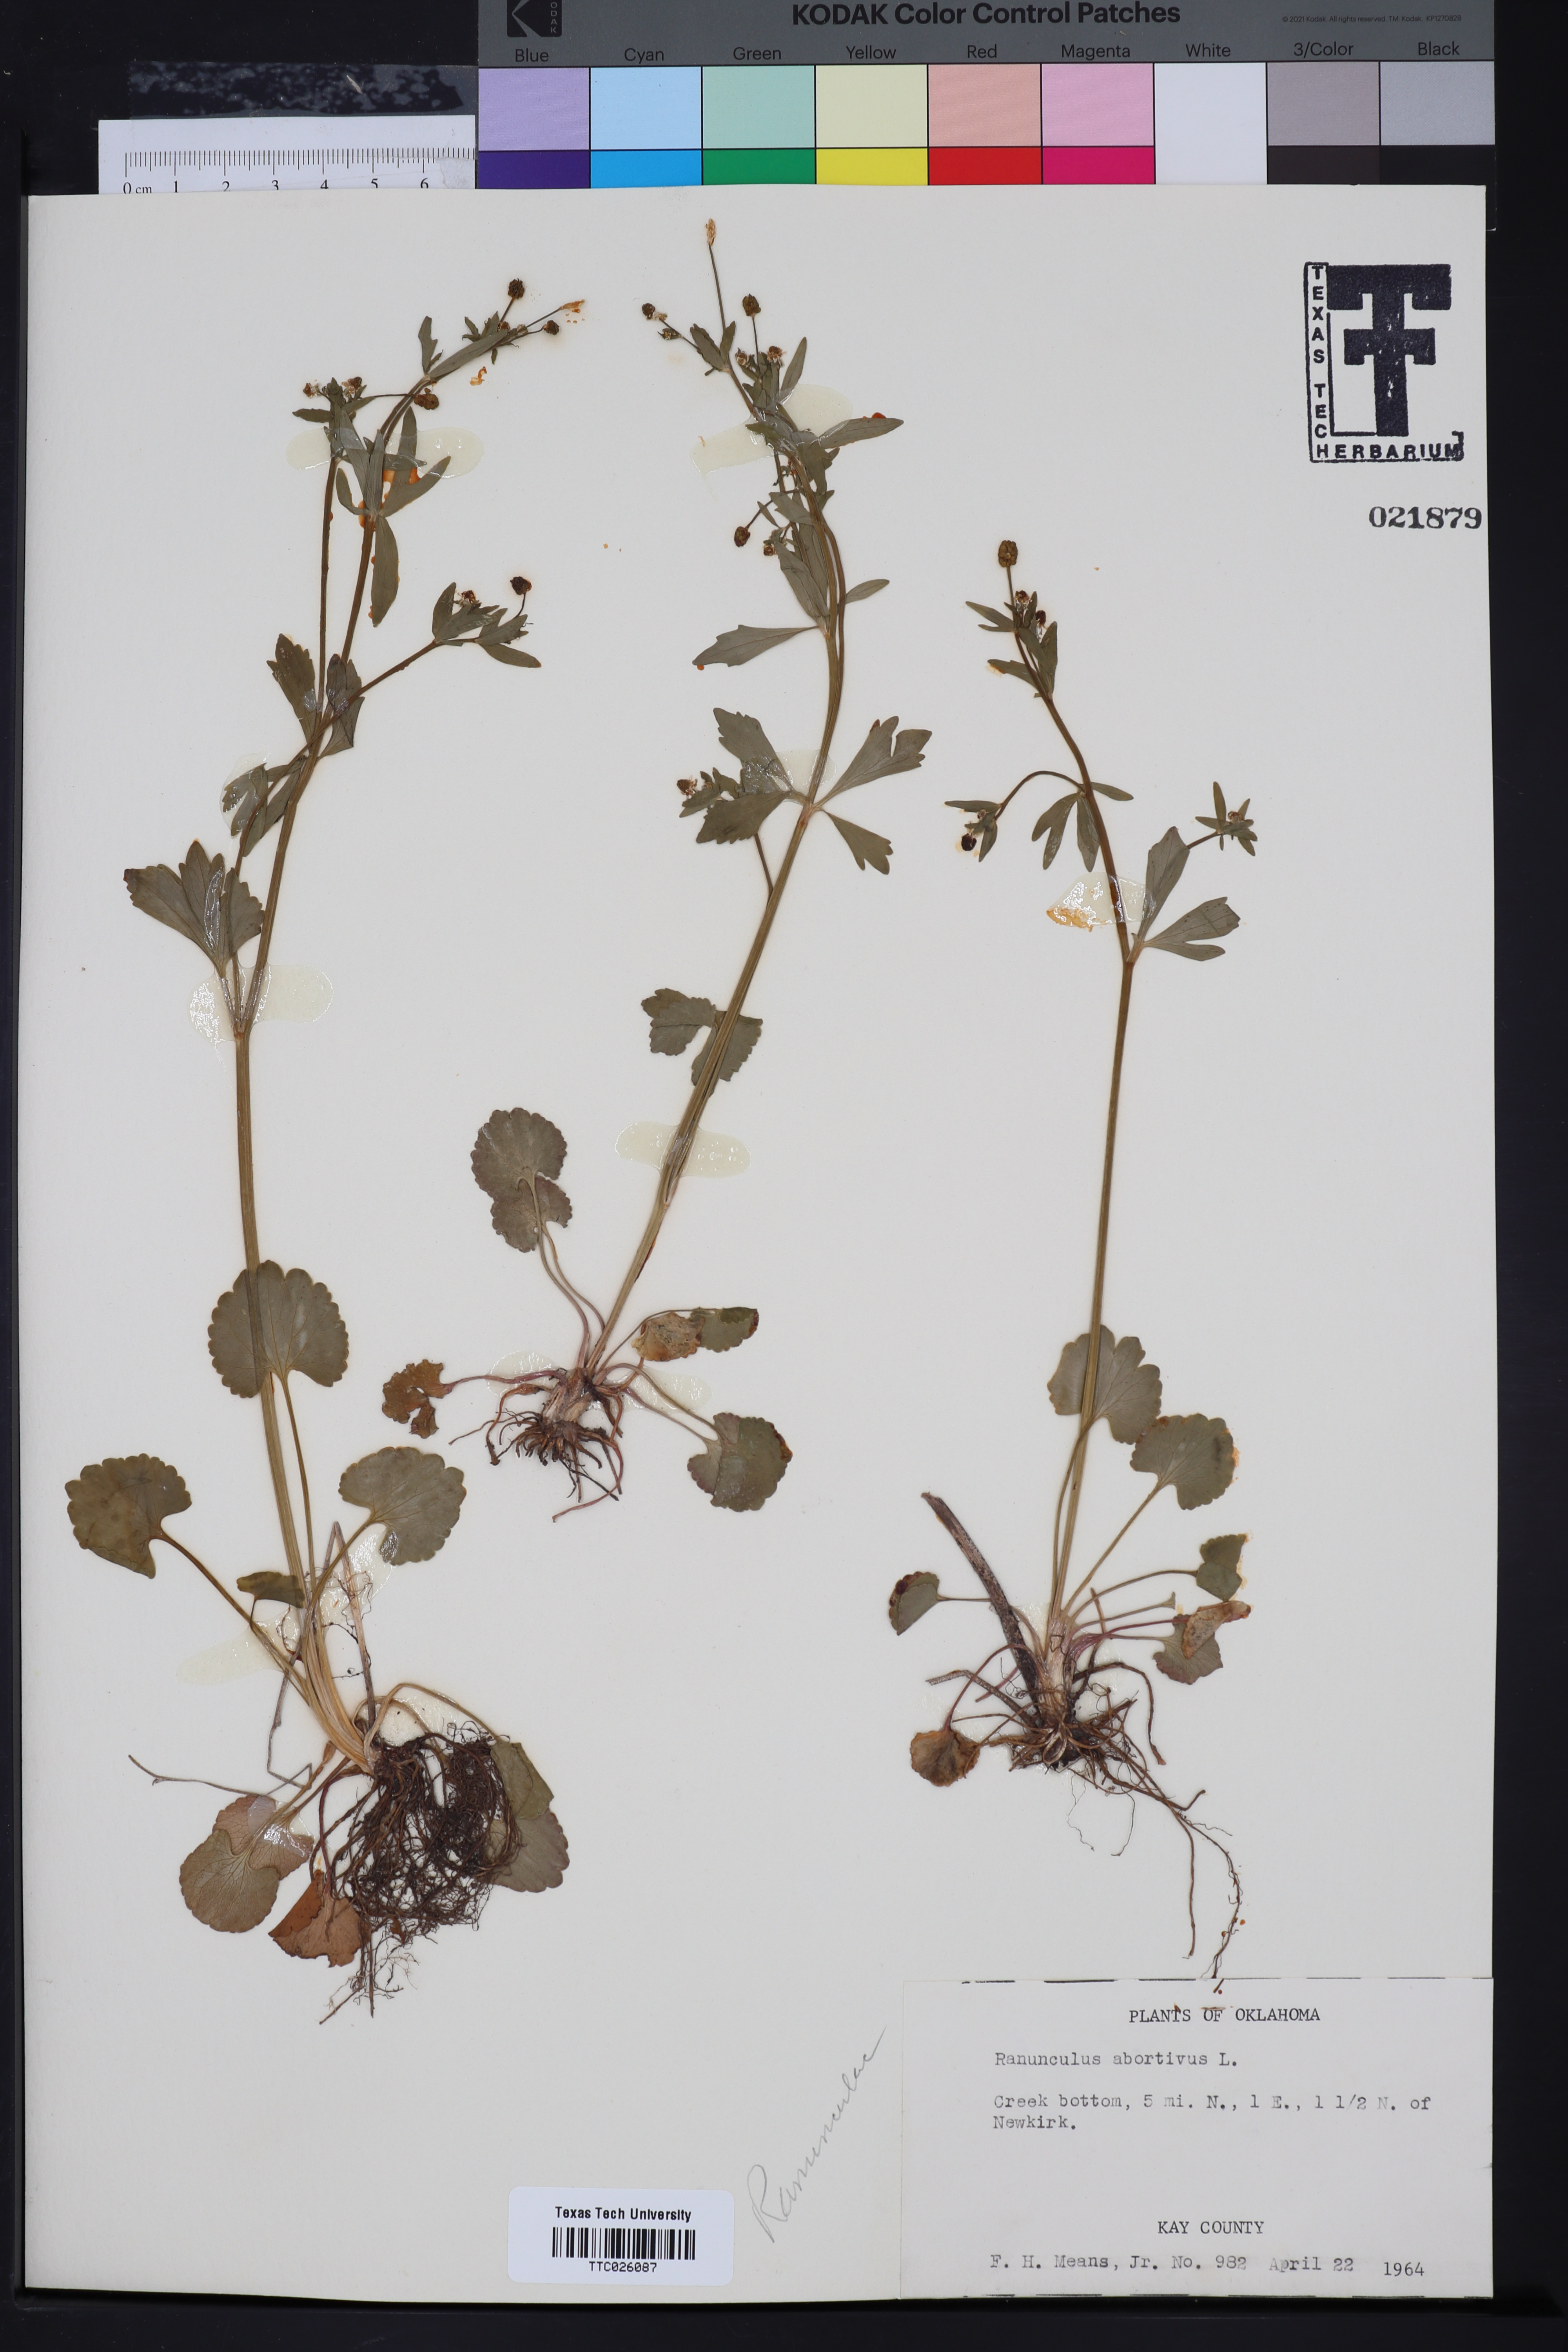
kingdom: Plantae
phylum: Tracheophyta
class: Magnoliopsida
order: Ranunculales
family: Ranunculaceae
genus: Ranunculus
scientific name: Ranunculus abortivus
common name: Early wood buttercup
